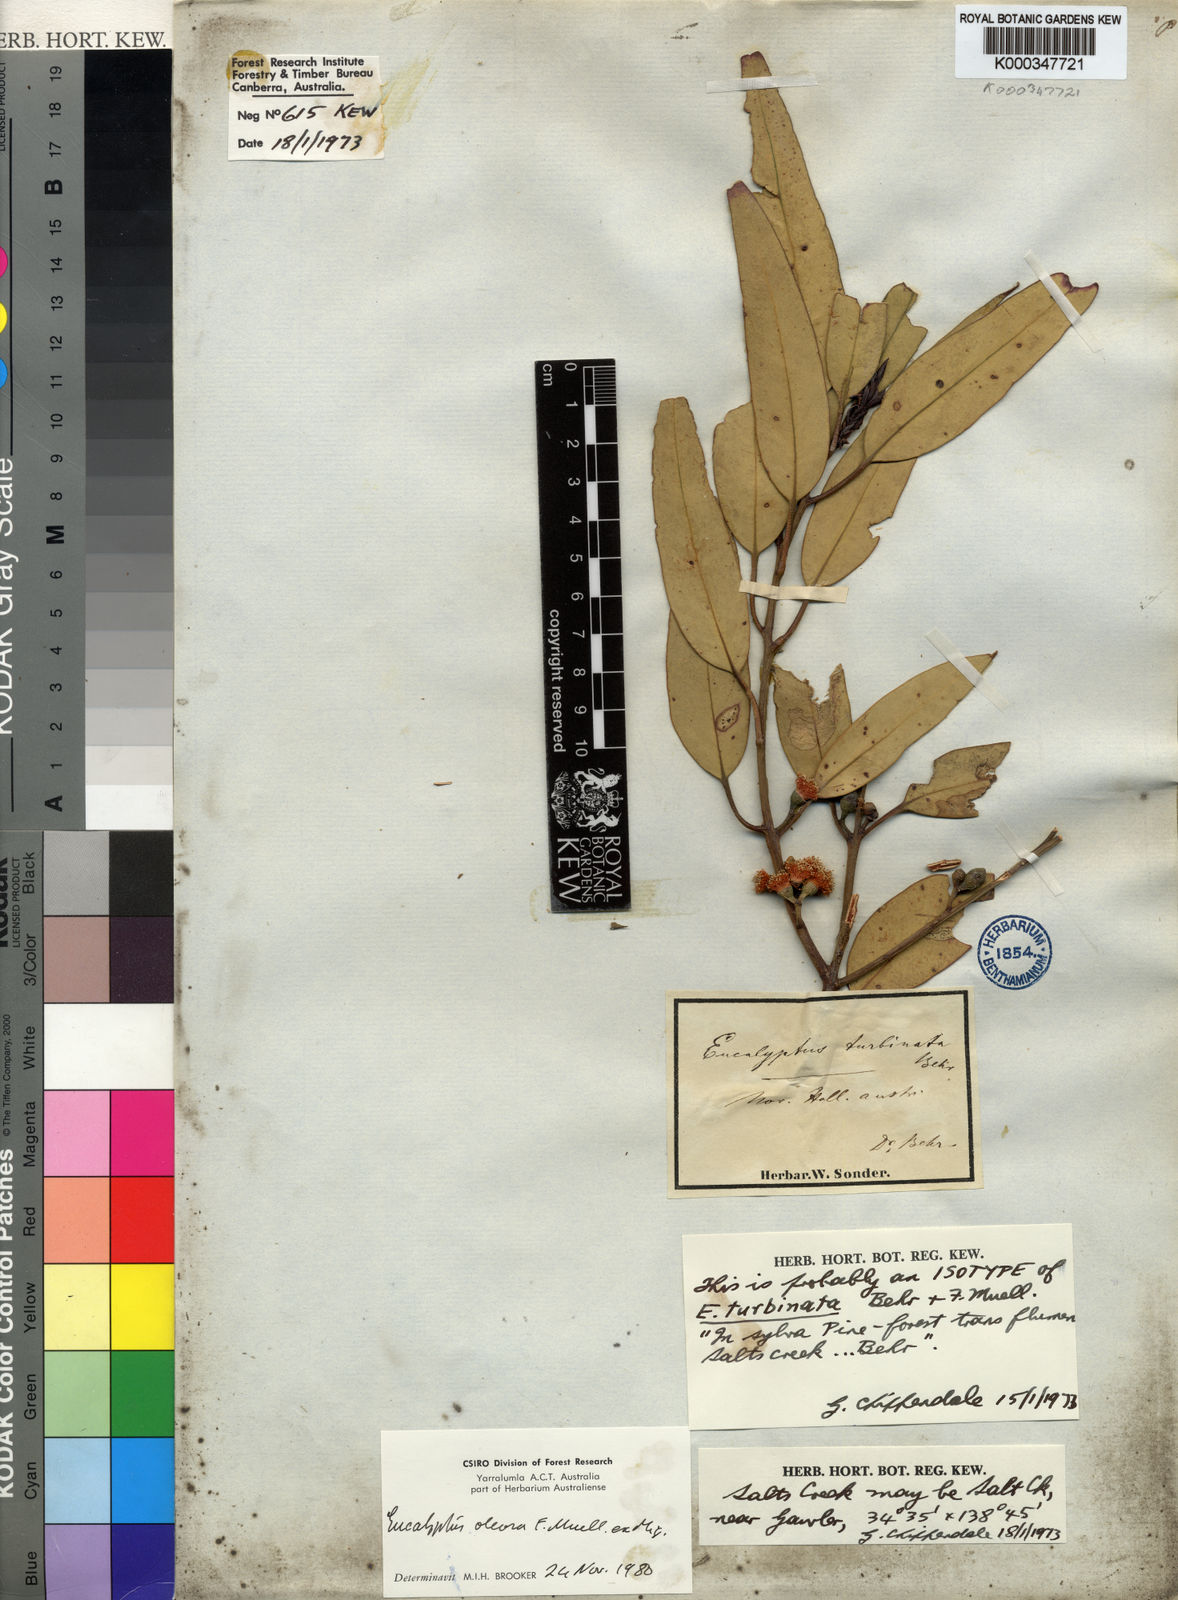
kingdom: Plantae
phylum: Tracheophyta
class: Magnoliopsida
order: Myrtales
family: Myrtaceae
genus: Eucalyptus
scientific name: Eucalyptus oleosa
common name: Oil mallee
